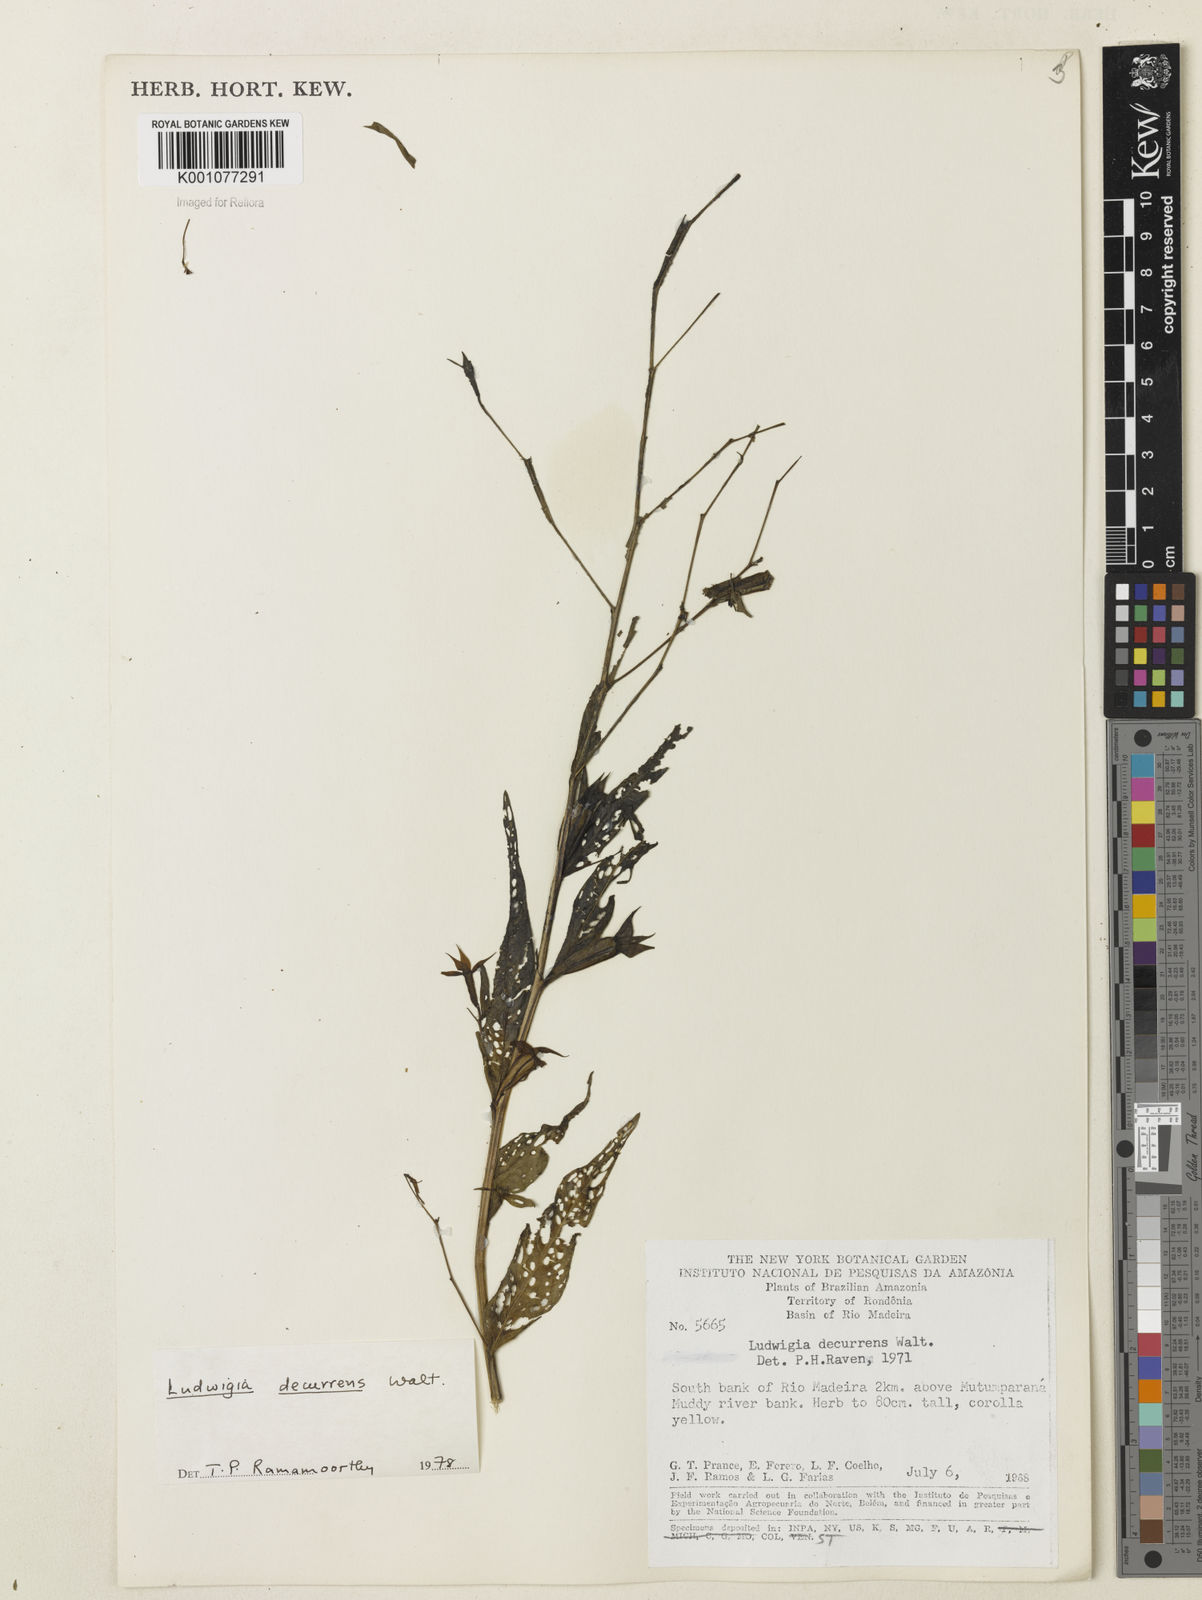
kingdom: Plantae
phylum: Tracheophyta
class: Magnoliopsida
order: Myrtales
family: Onagraceae
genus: Ludwigia
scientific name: Ludwigia decurrens
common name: Winged water-primrose
